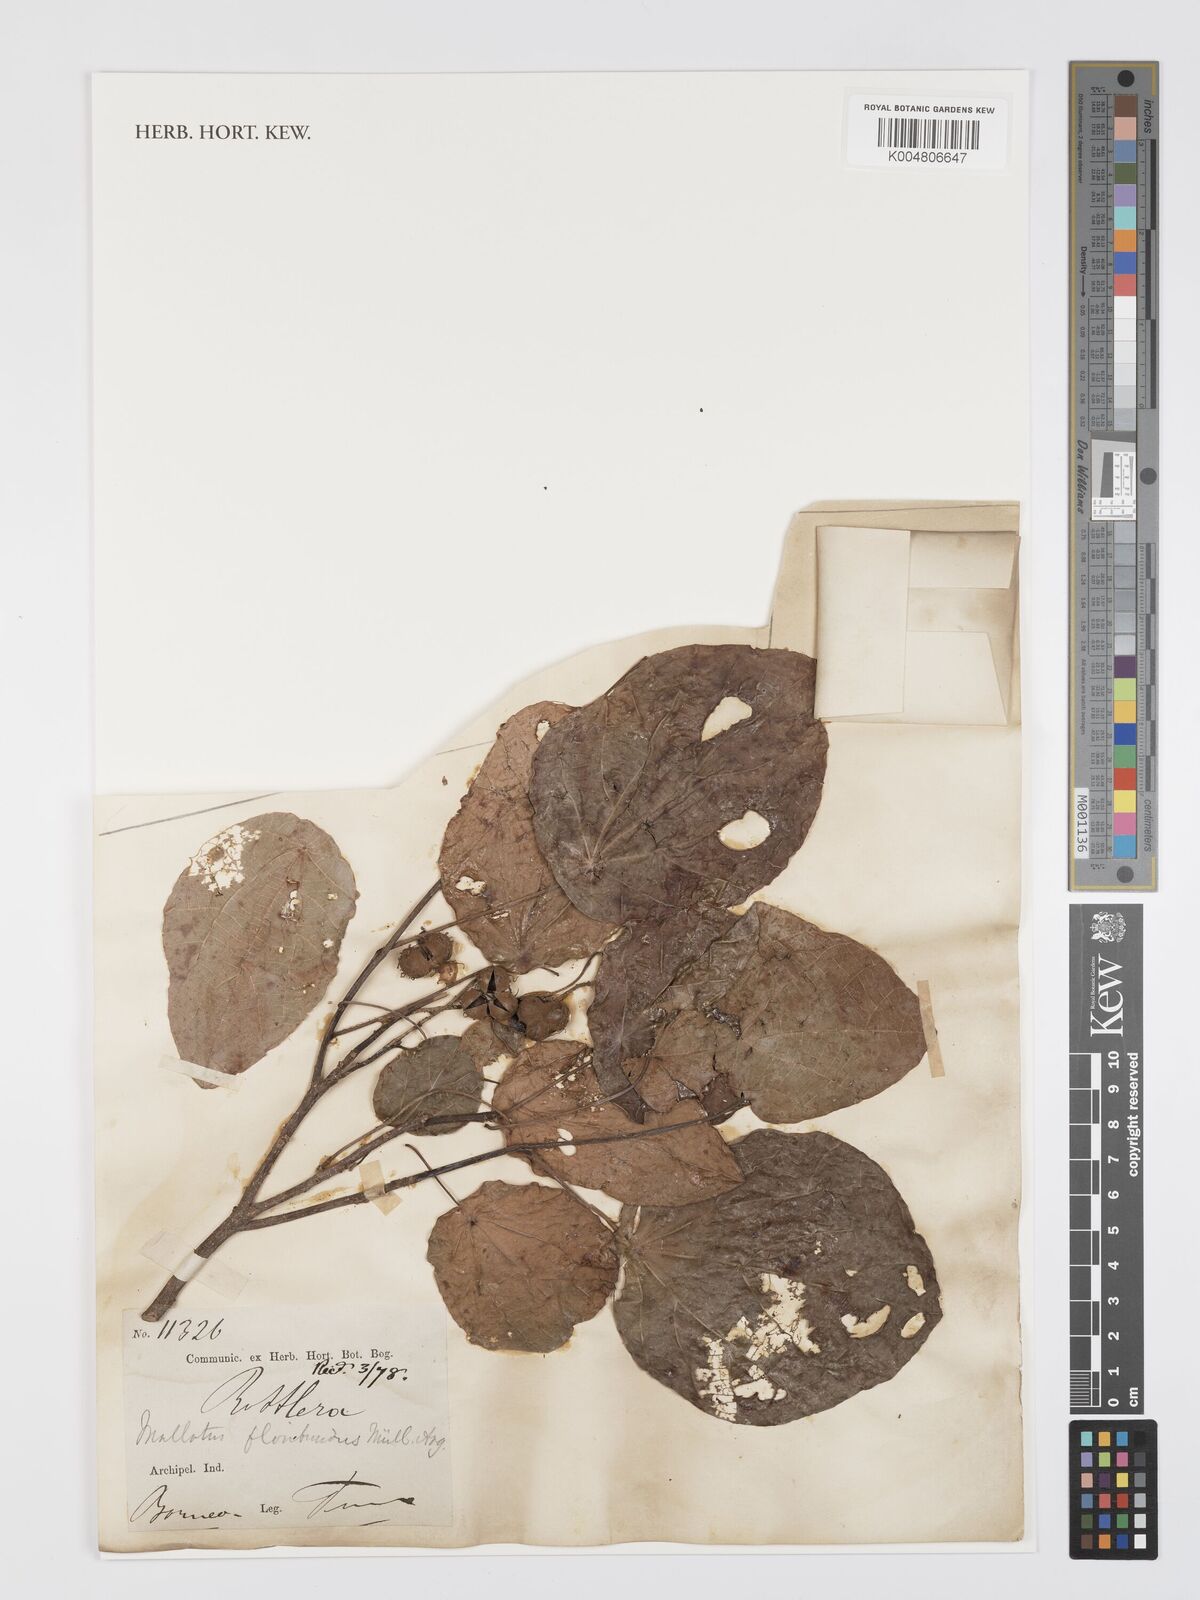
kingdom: Plantae
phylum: Tracheophyta
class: Magnoliopsida
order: Malpighiales
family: Euphorbiaceae
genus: Mallotus
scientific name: Mallotus floribundus
